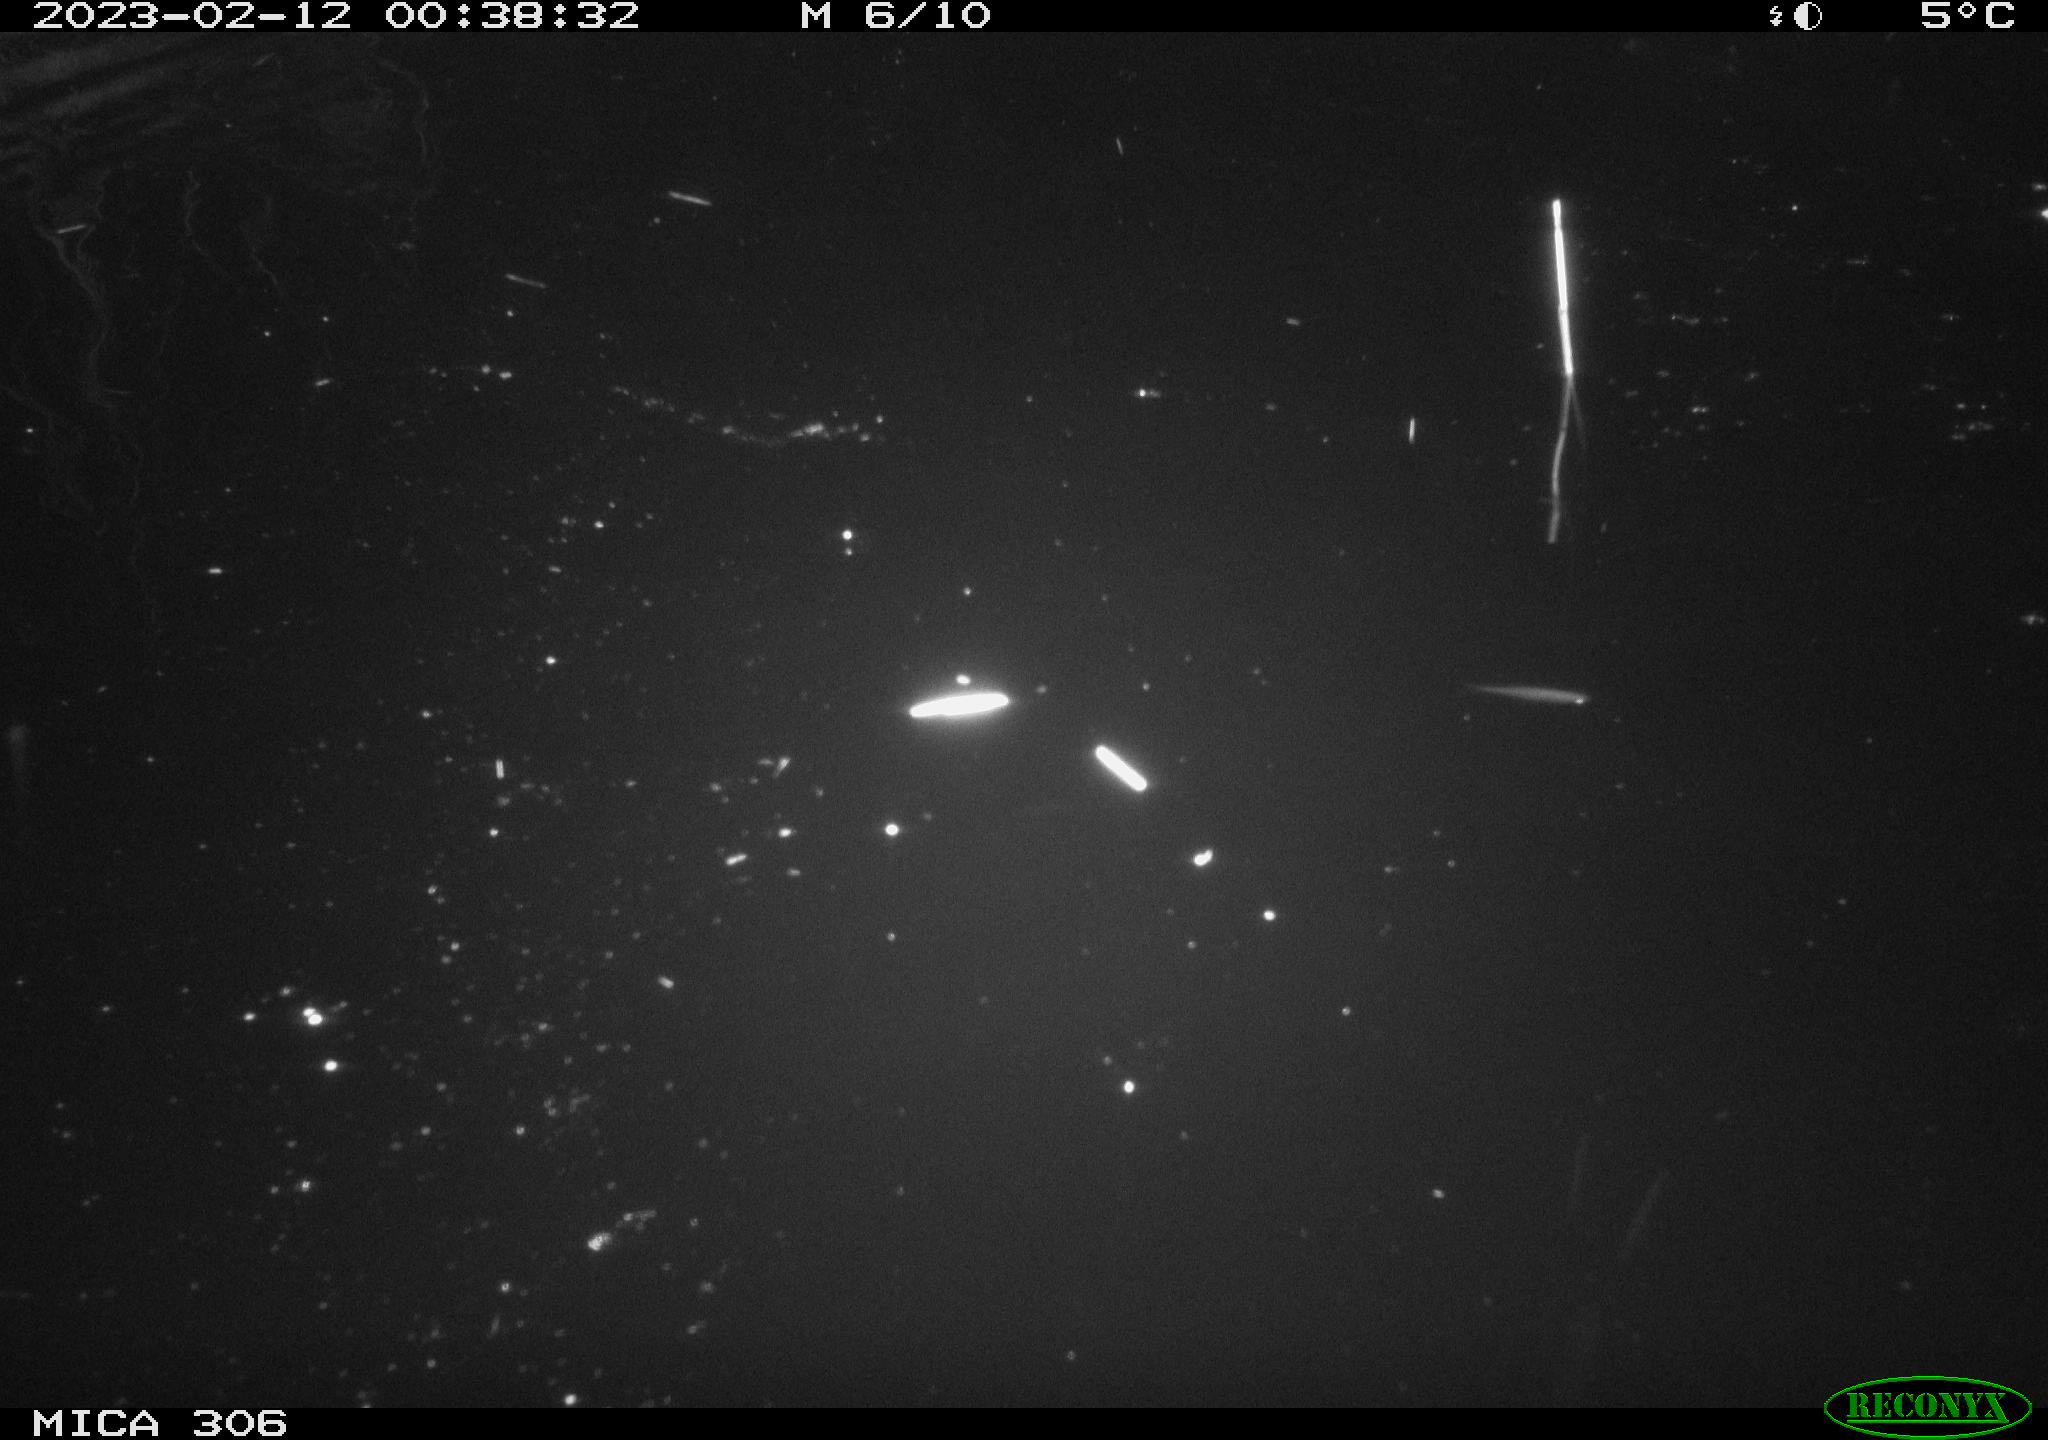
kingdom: Animalia
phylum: Chordata
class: Mammalia
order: Rodentia
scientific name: Rodentia
